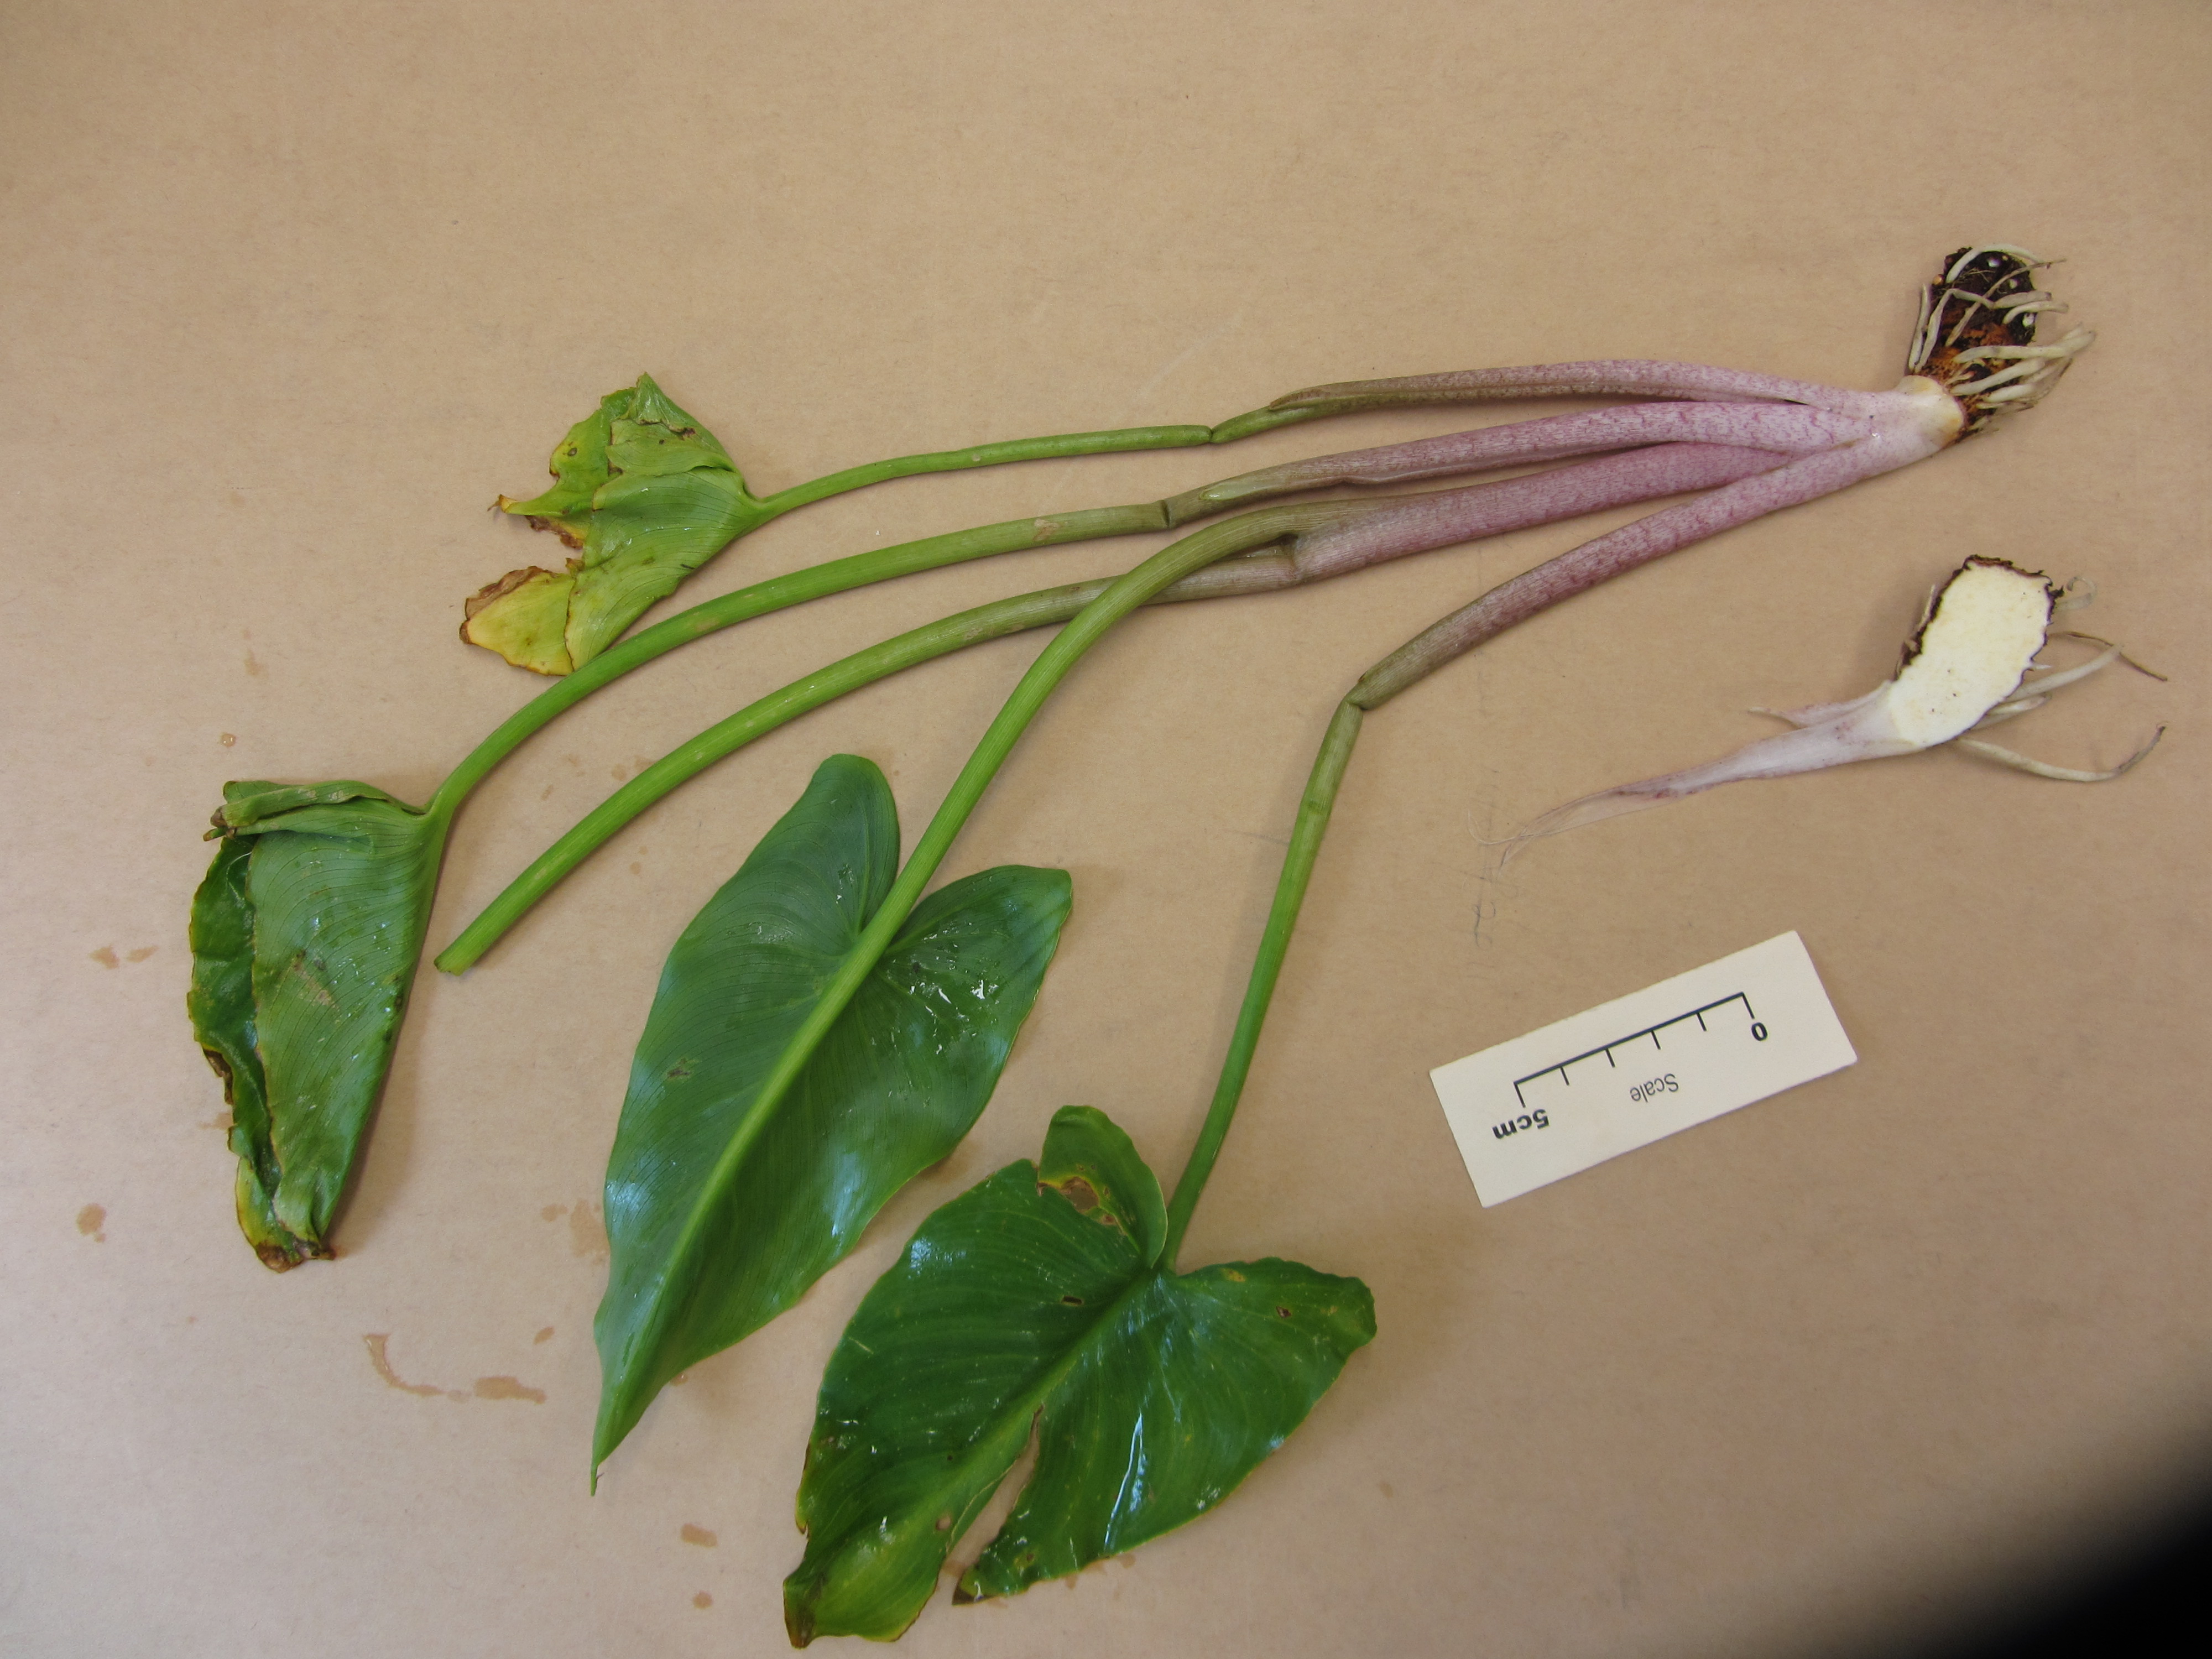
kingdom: Plantae
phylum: Tracheophyta
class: Liliopsida
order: Alismatales
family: Araceae
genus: Zantedeschia
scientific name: Zantedeschia aethiopica
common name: Altar-lily
